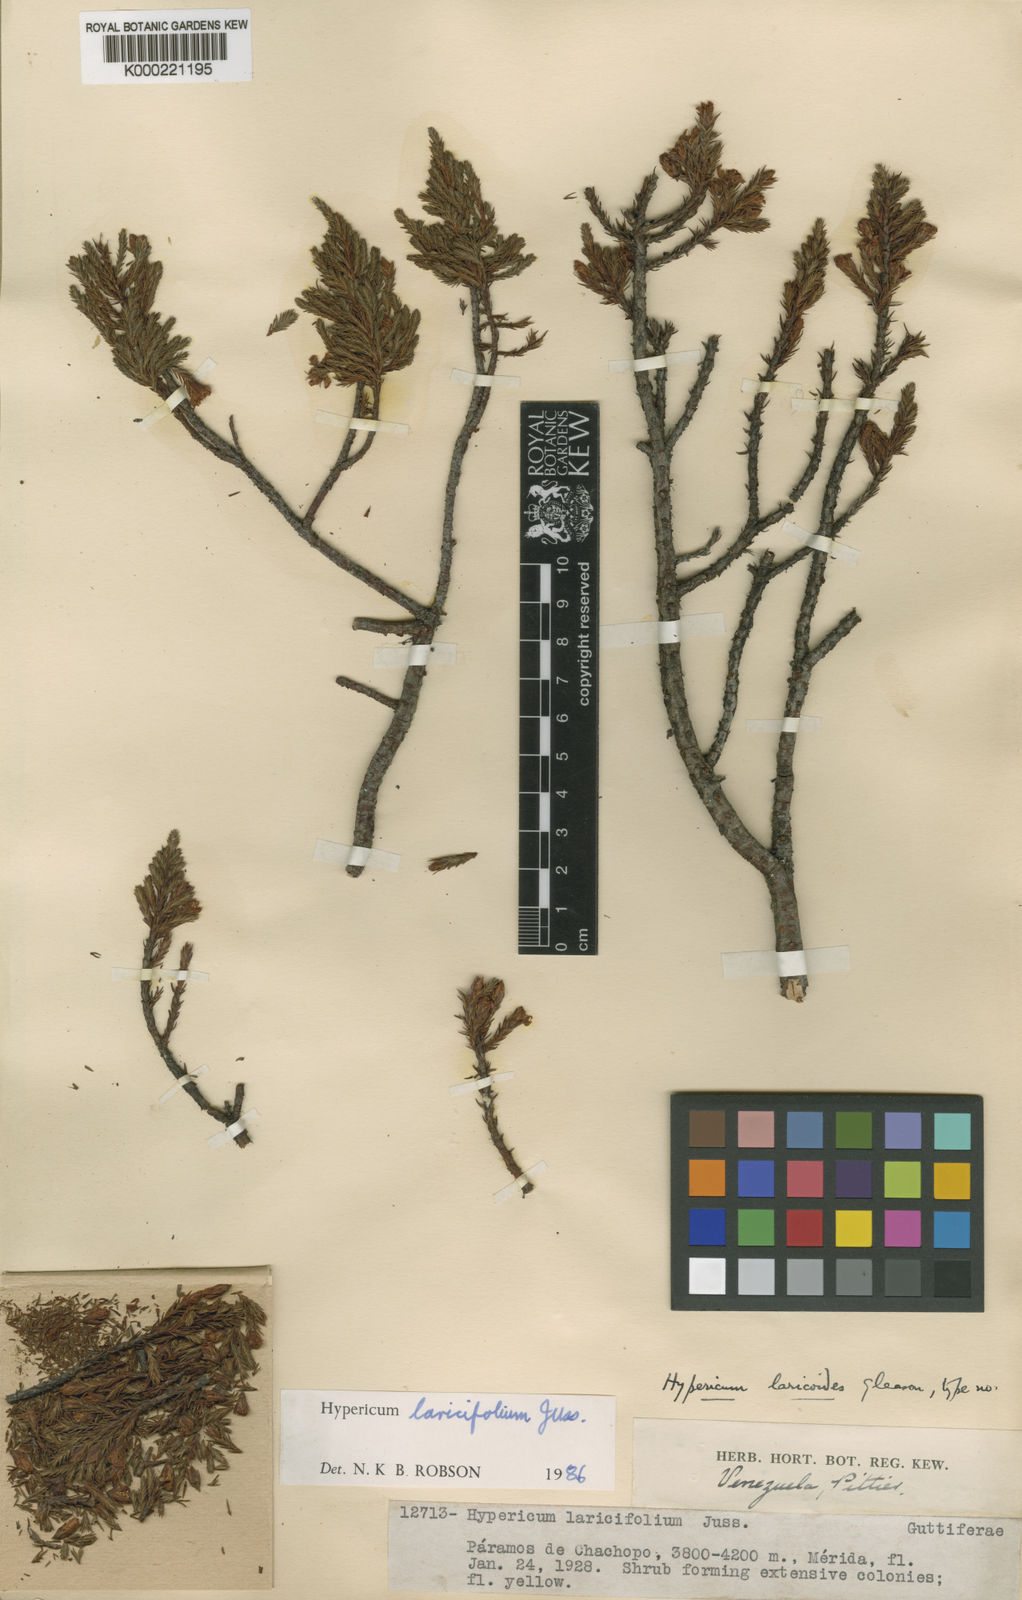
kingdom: Plantae
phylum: Tracheophyta
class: Magnoliopsida
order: Malpighiales
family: Hypericaceae
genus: Hypericum
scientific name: Hypericum laricifolium
